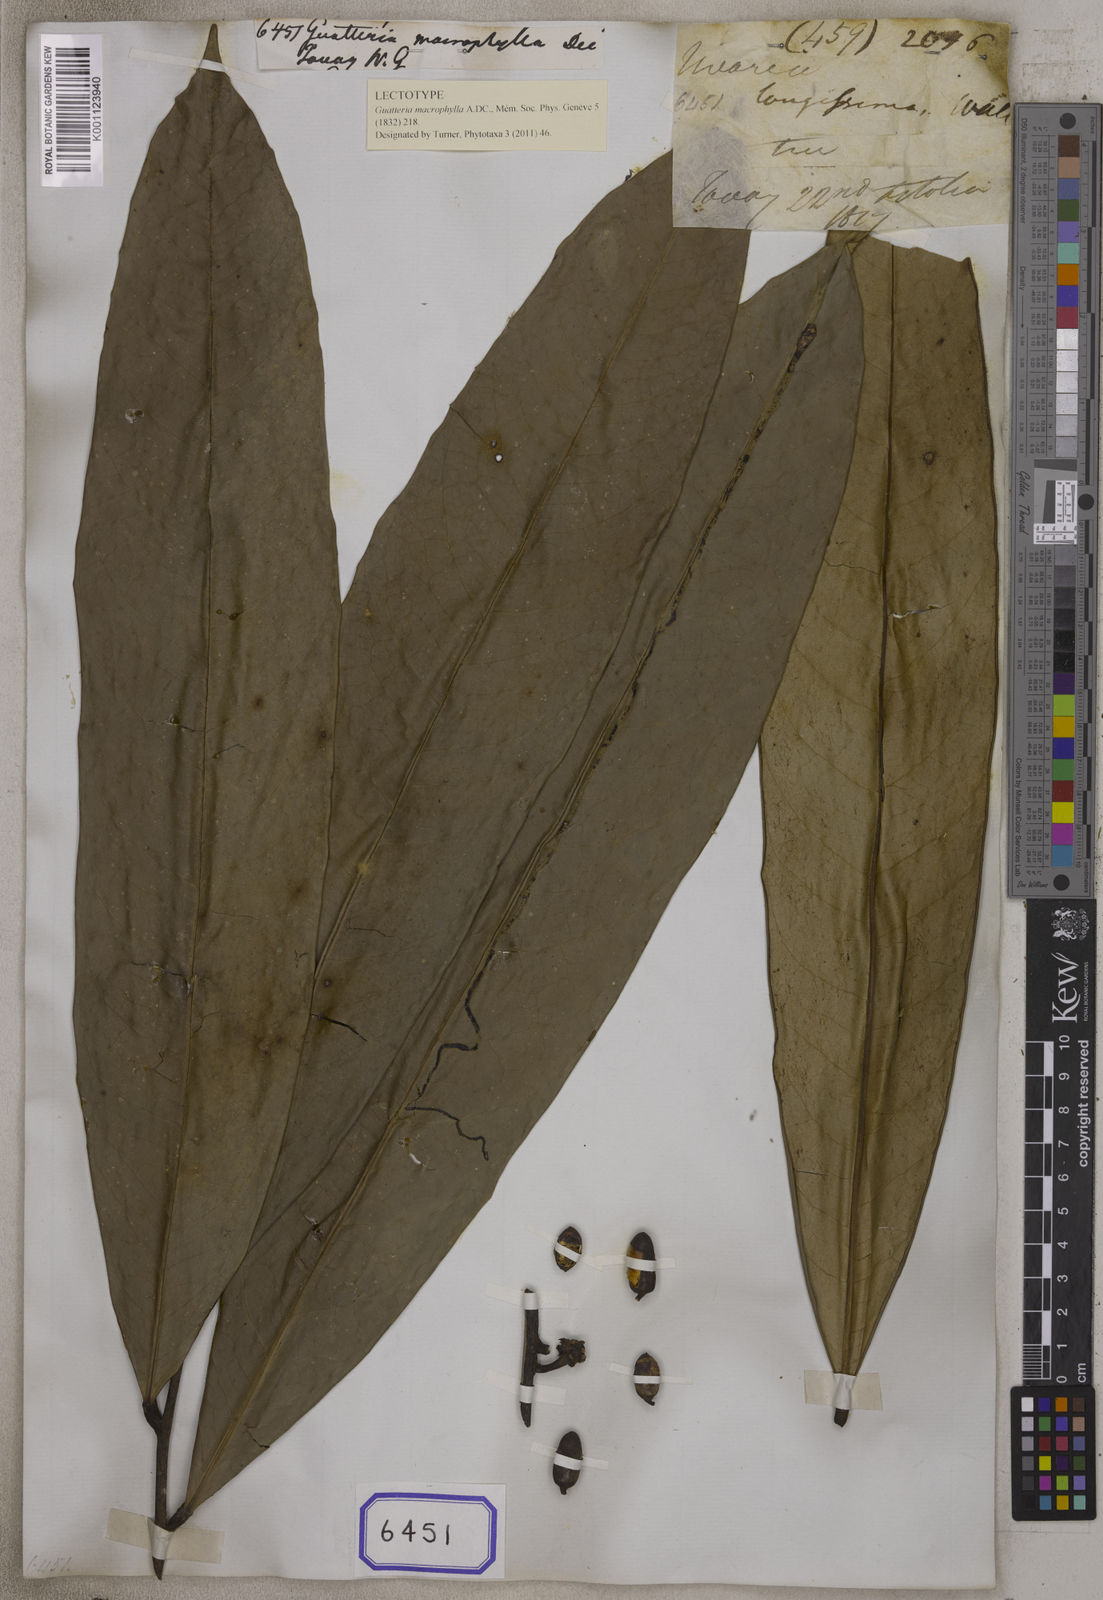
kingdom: Plantae
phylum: Tracheophyta
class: Magnoliopsida
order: Magnoliales
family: Annonaceae
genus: Goniothalamus
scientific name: Goniothalamus sesquipedalis
